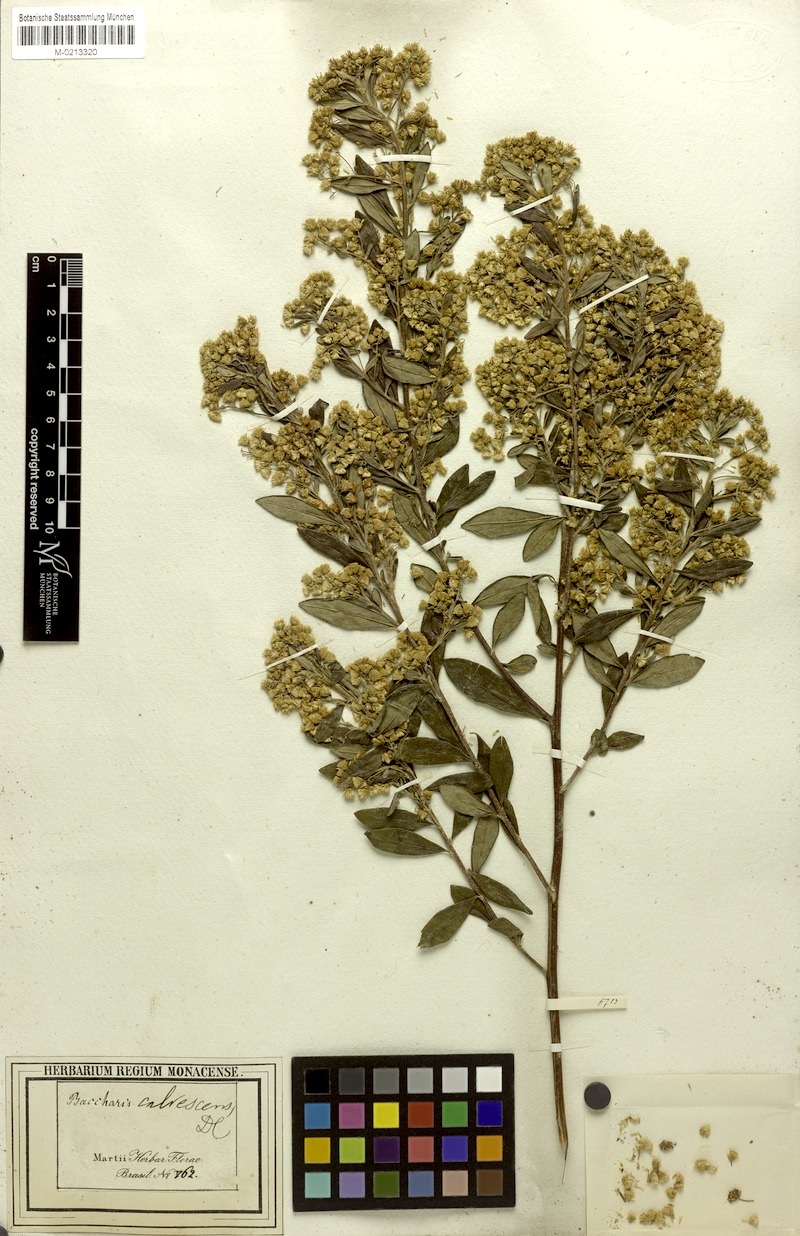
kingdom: Plantae
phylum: Tracheophyta
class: Magnoliopsida
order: Asterales
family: Asteraceae
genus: Baccharis
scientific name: Baccharis calvescens
